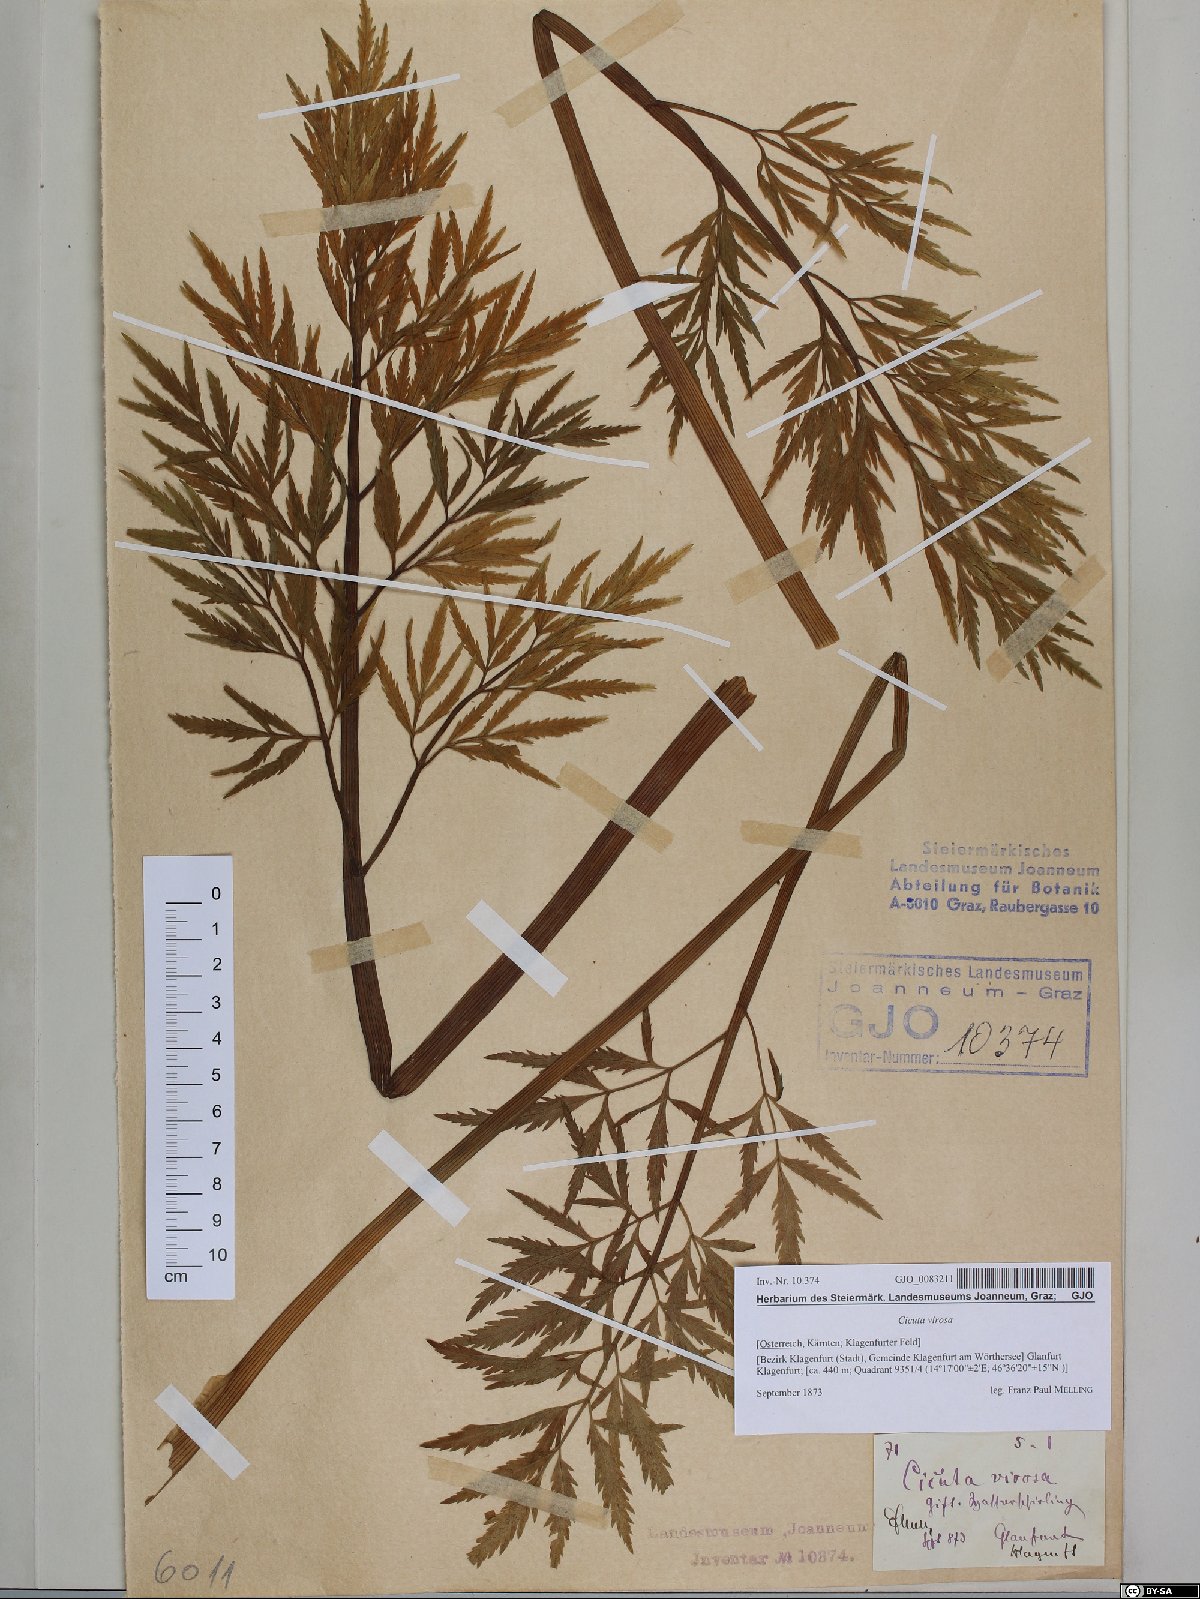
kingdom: Plantae
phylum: Tracheophyta
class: Magnoliopsida
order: Apiales
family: Apiaceae
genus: Cicuta
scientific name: Cicuta virosa
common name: Cowbane
